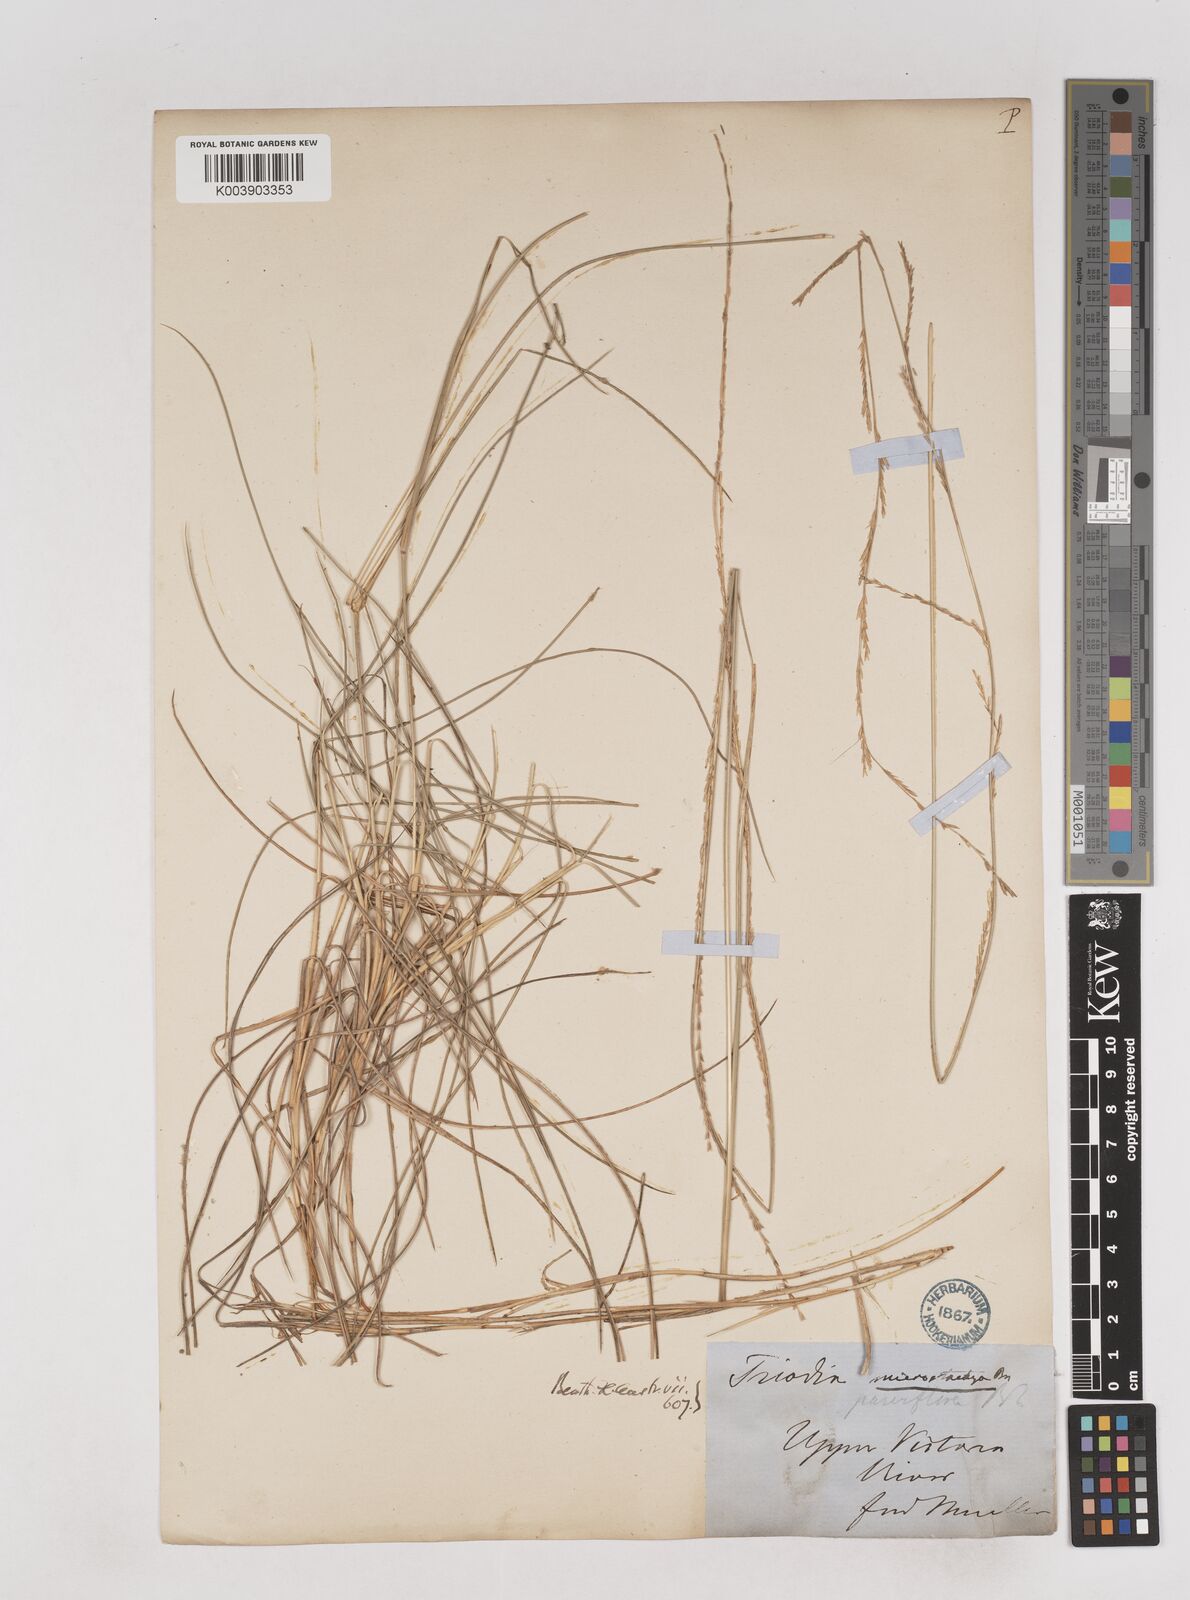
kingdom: Plantae
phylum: Tracheophyta
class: Liliopsida
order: Poales
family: Poaceae
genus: Triodia
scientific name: Triodia microstachya
